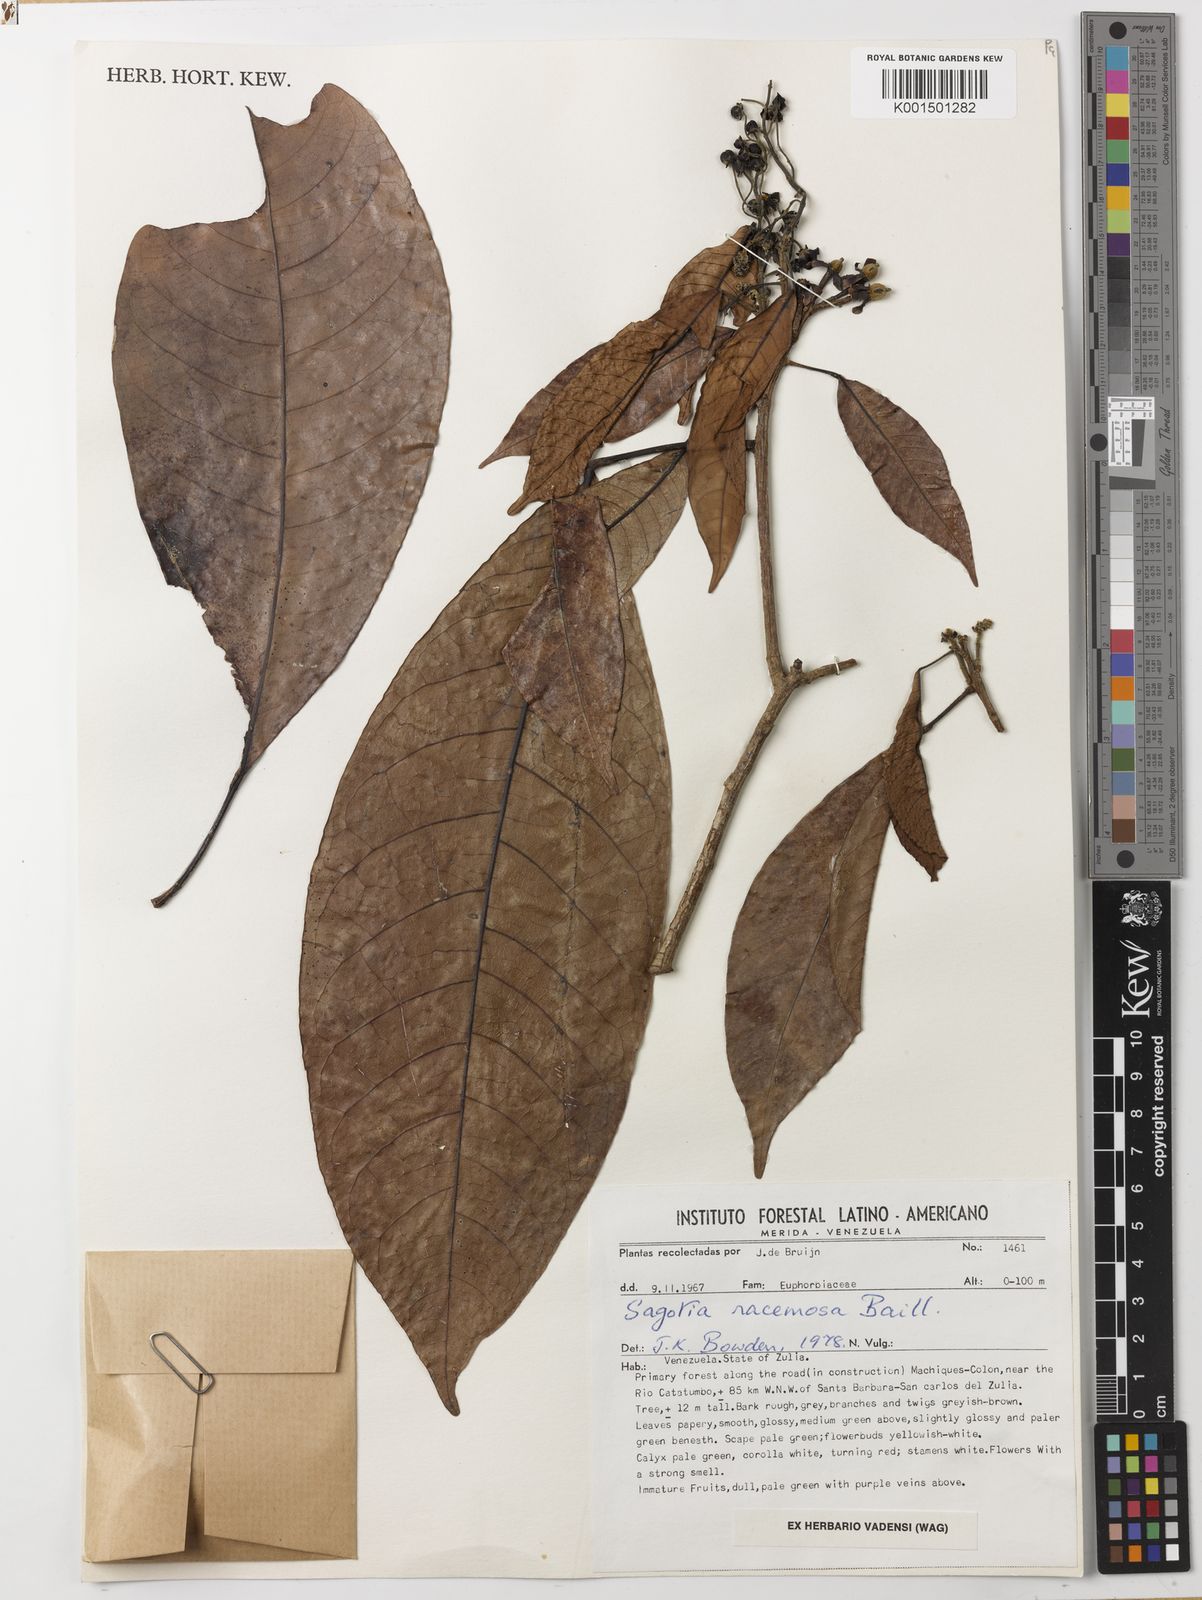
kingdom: Plantae
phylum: Tracheophyta
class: Magnoliopsida
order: Malpighiales
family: Euphorbiaceae
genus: Sagotia
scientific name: Sagotia racemosa
